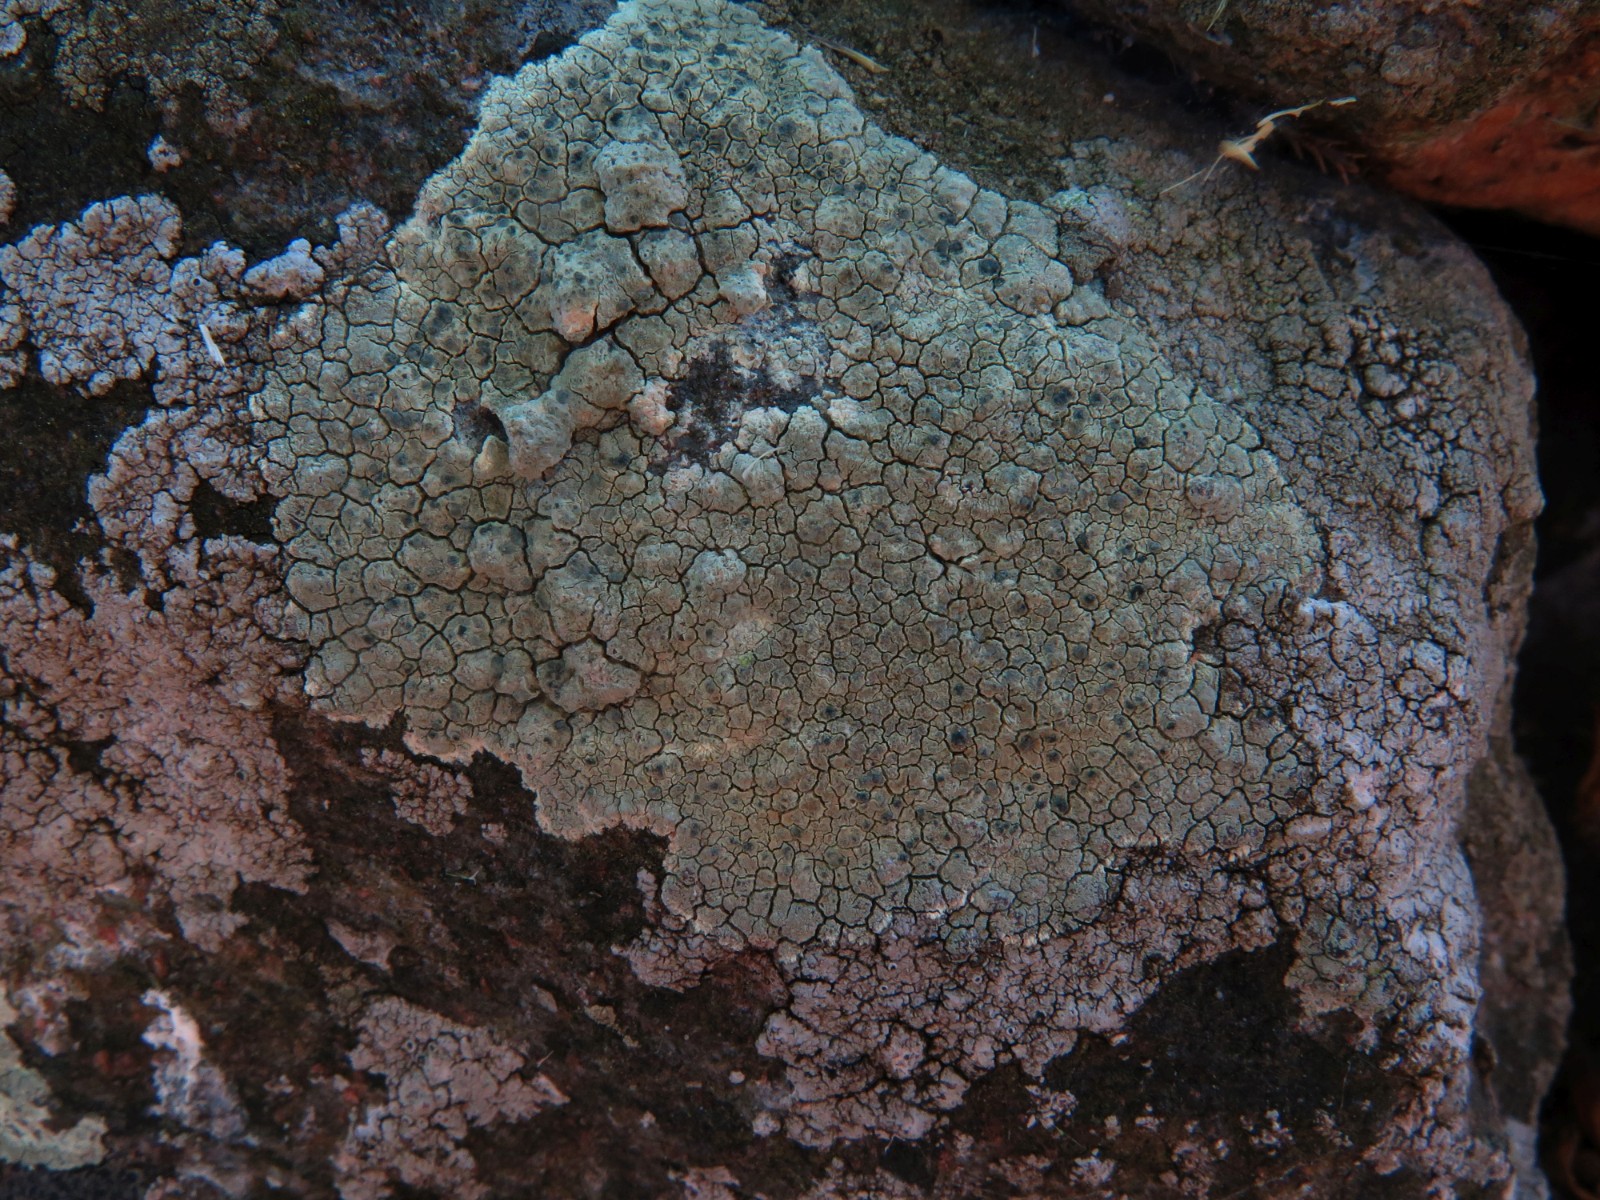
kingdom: Fungi
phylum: Ascomycota
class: Lecanoromycetes
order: Lecanorales
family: Lecanoraceae
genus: Glaucomaria
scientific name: Glaucomaria sulphurea
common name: svovlgul kantskivelav
